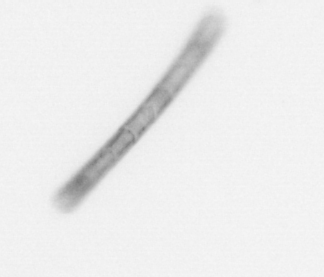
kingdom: Chromista
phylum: Ochrophyta
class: Bacillariophyceae
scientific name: Bacillariophyceae
